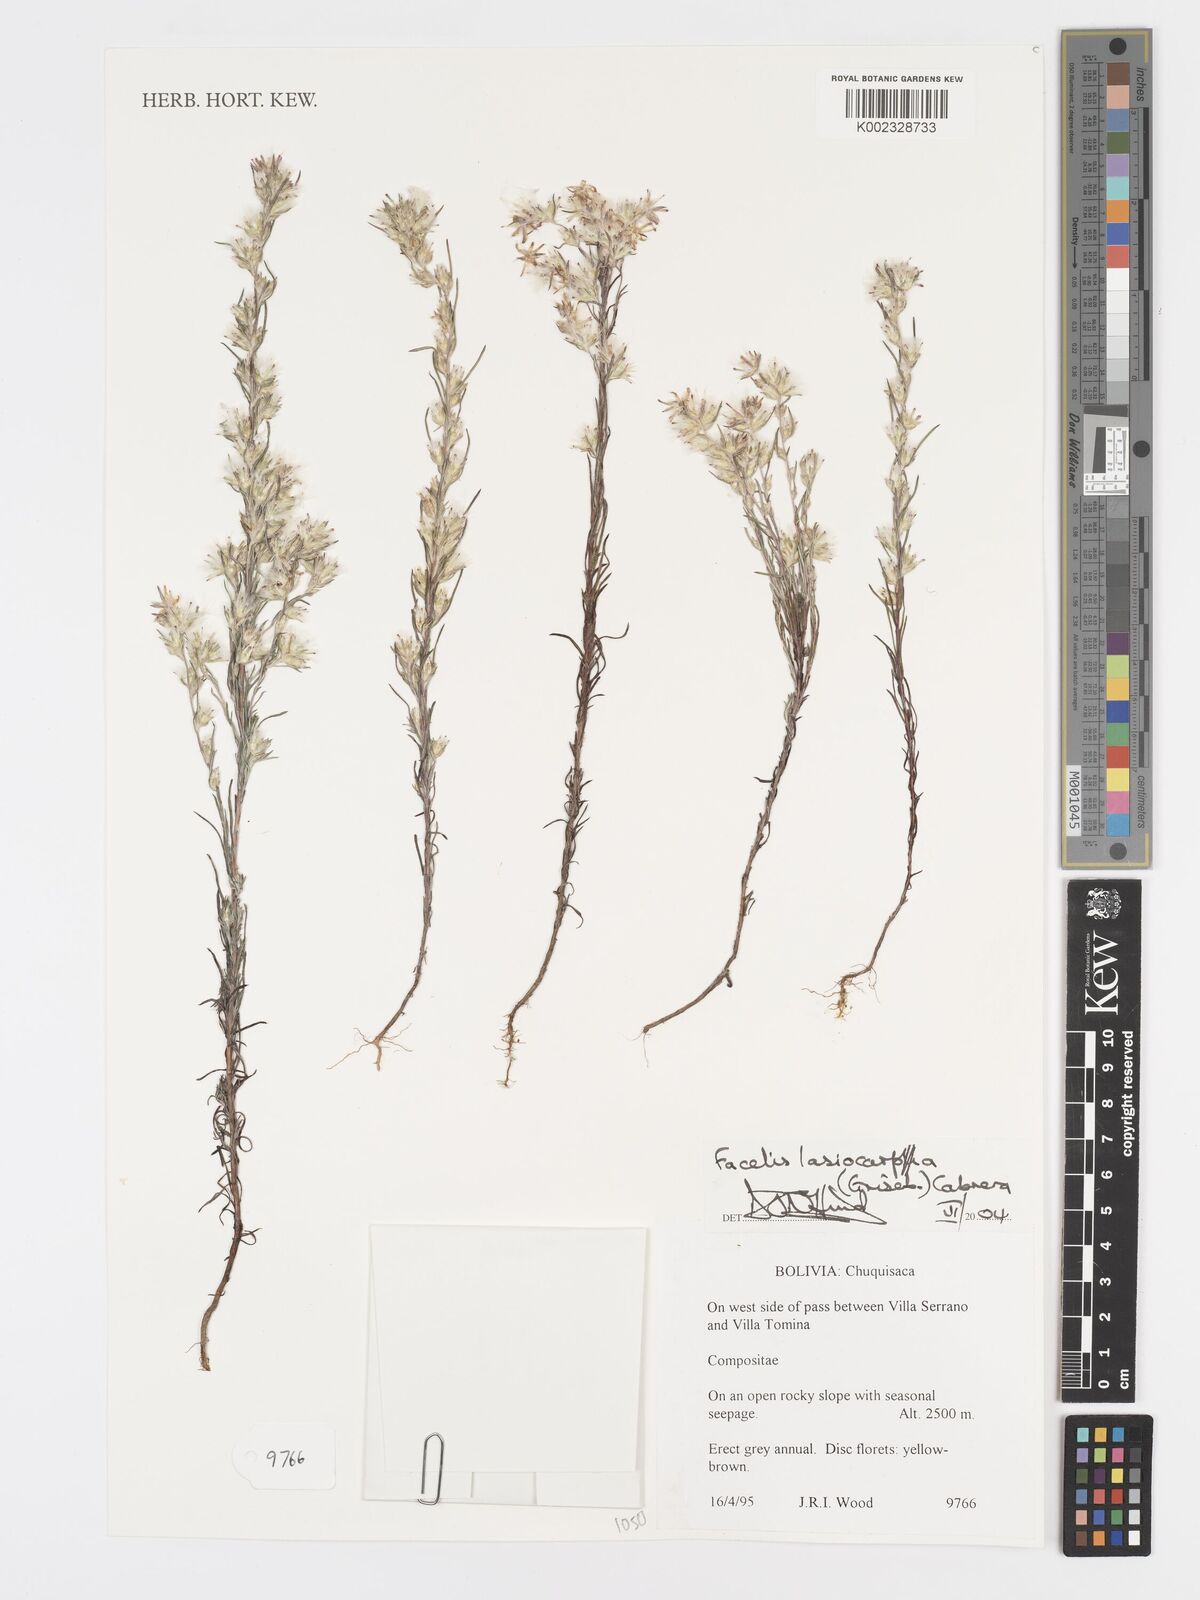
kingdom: Plantae
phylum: Tracheophyta
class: Magnoliopsida
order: Asterales
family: Asteraceae
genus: Facelis
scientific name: Facelis lasiocarpa
